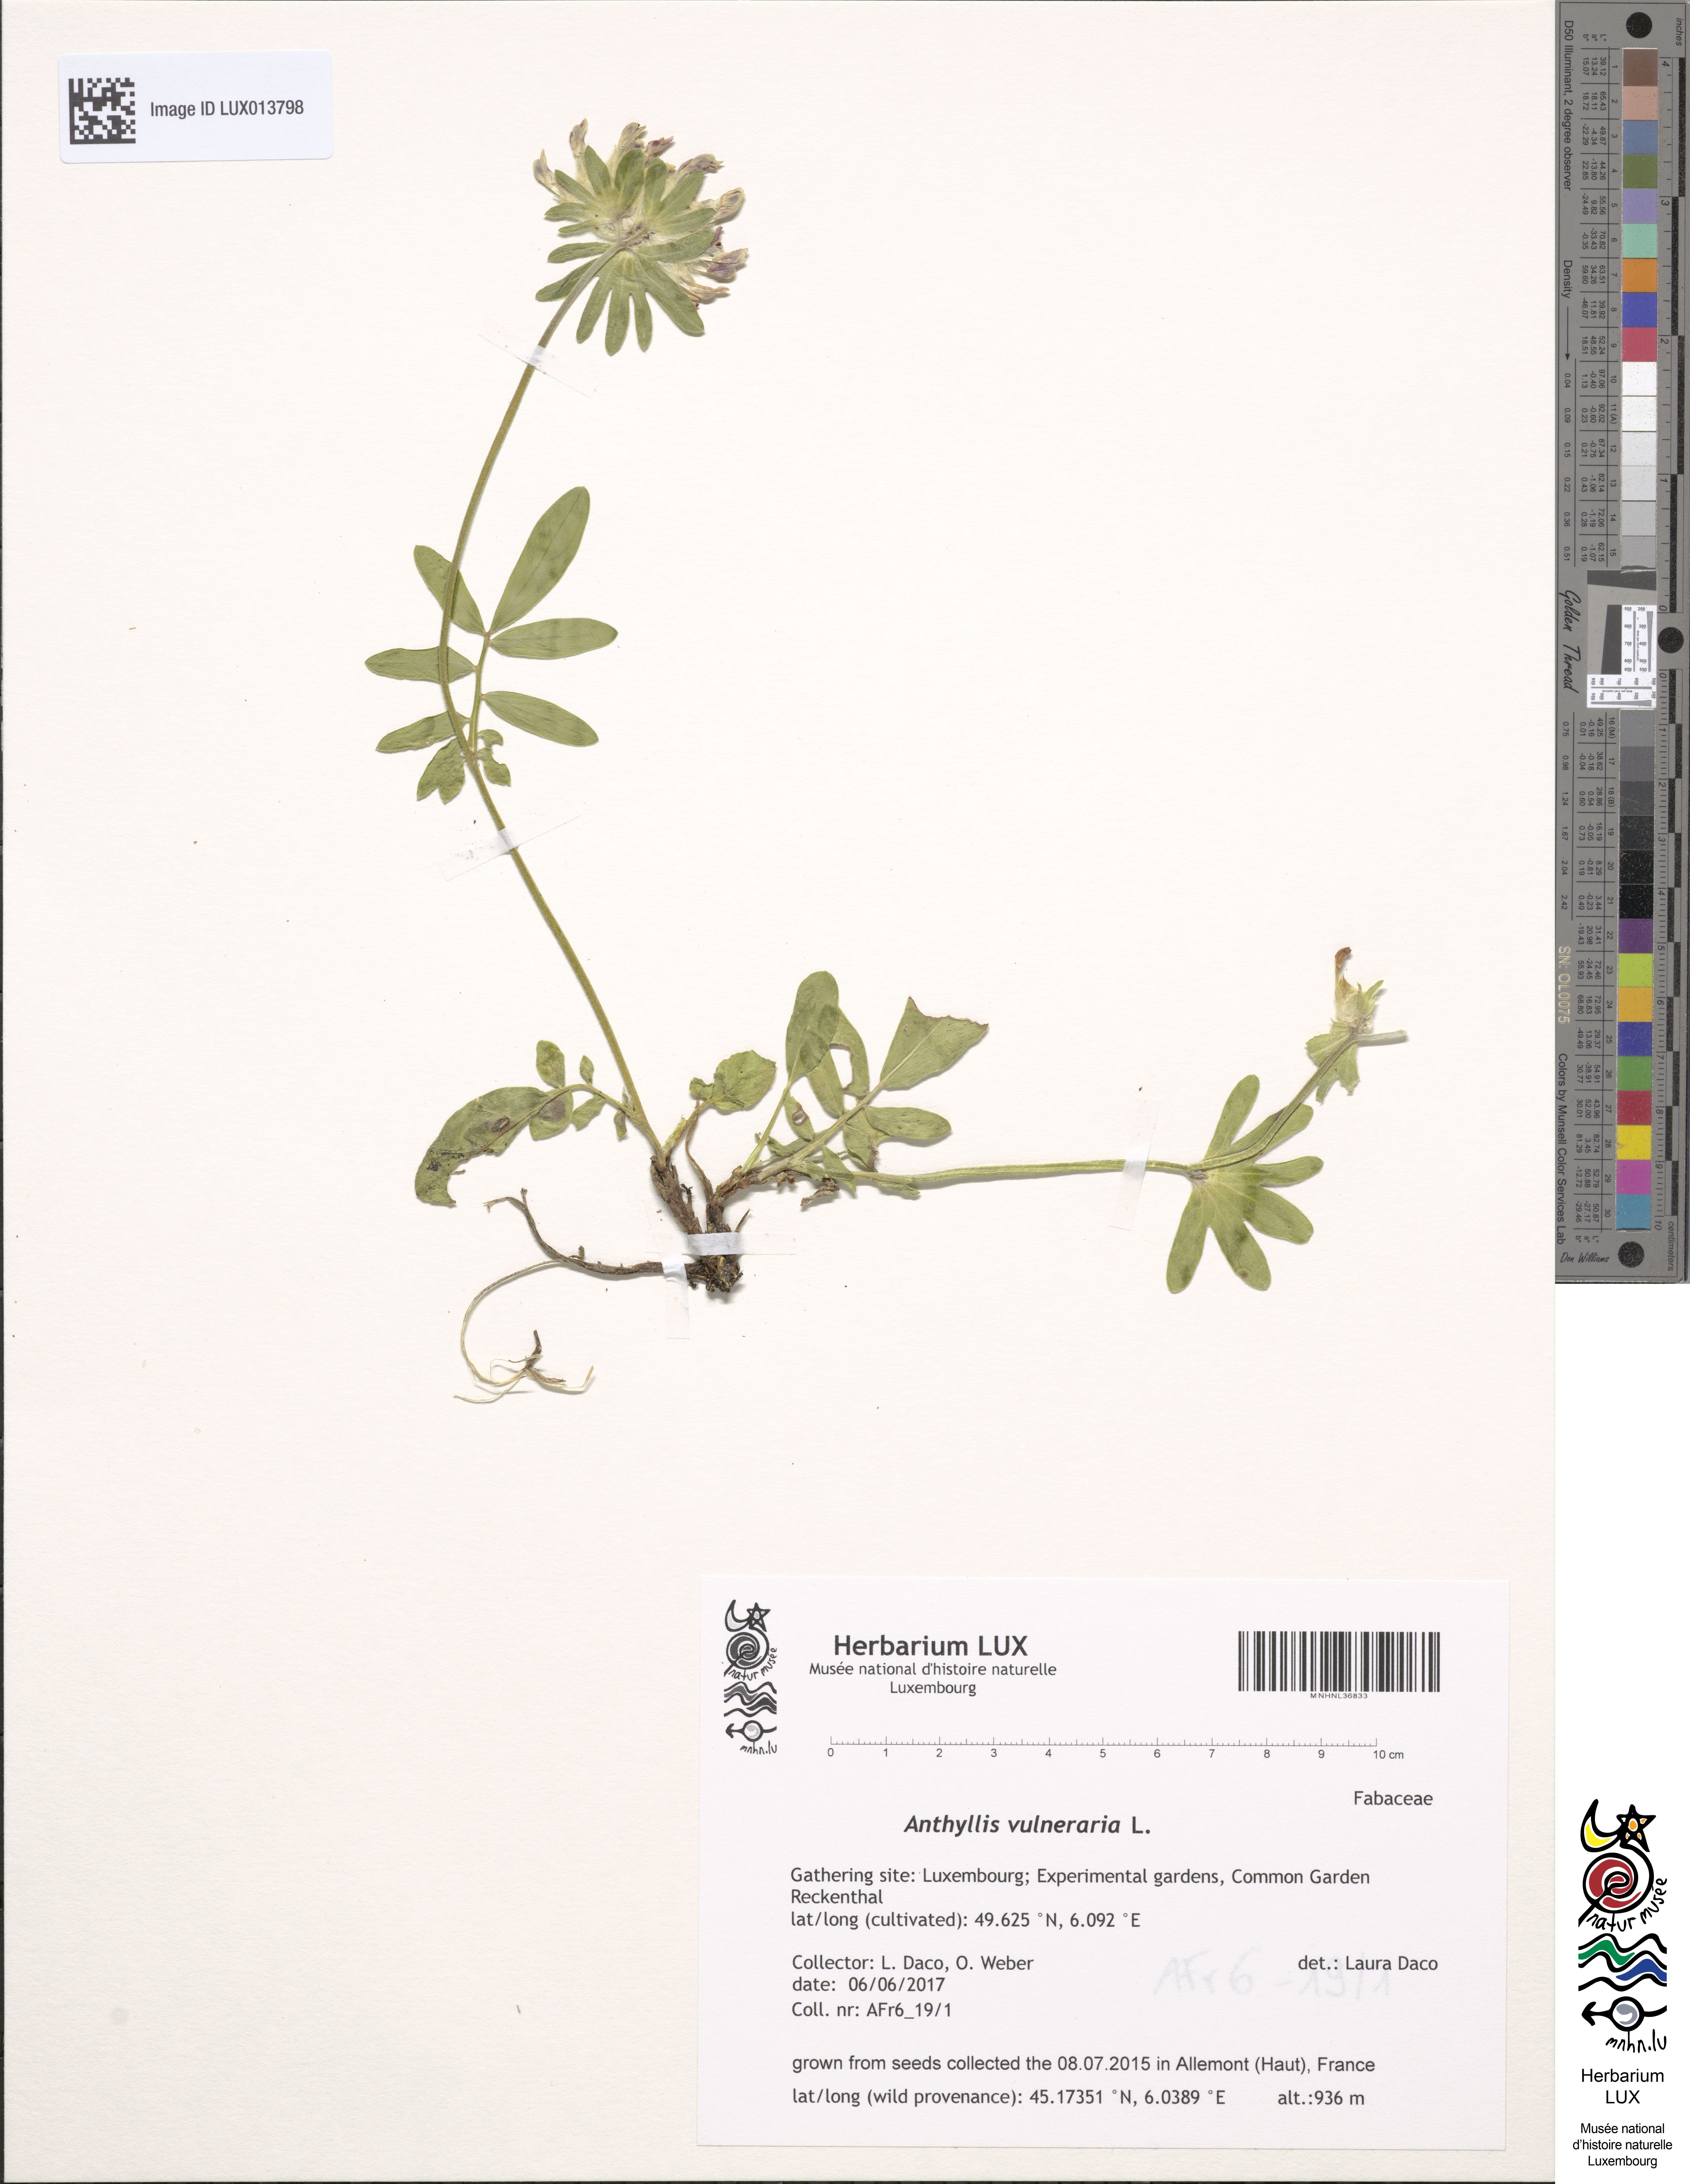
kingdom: Plantae
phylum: Tracheophyta
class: Magnoliopsida
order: Fabales
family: Fabaceae
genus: Anthyllis
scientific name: Anthyllis vulneraria
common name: Kidney vetch
